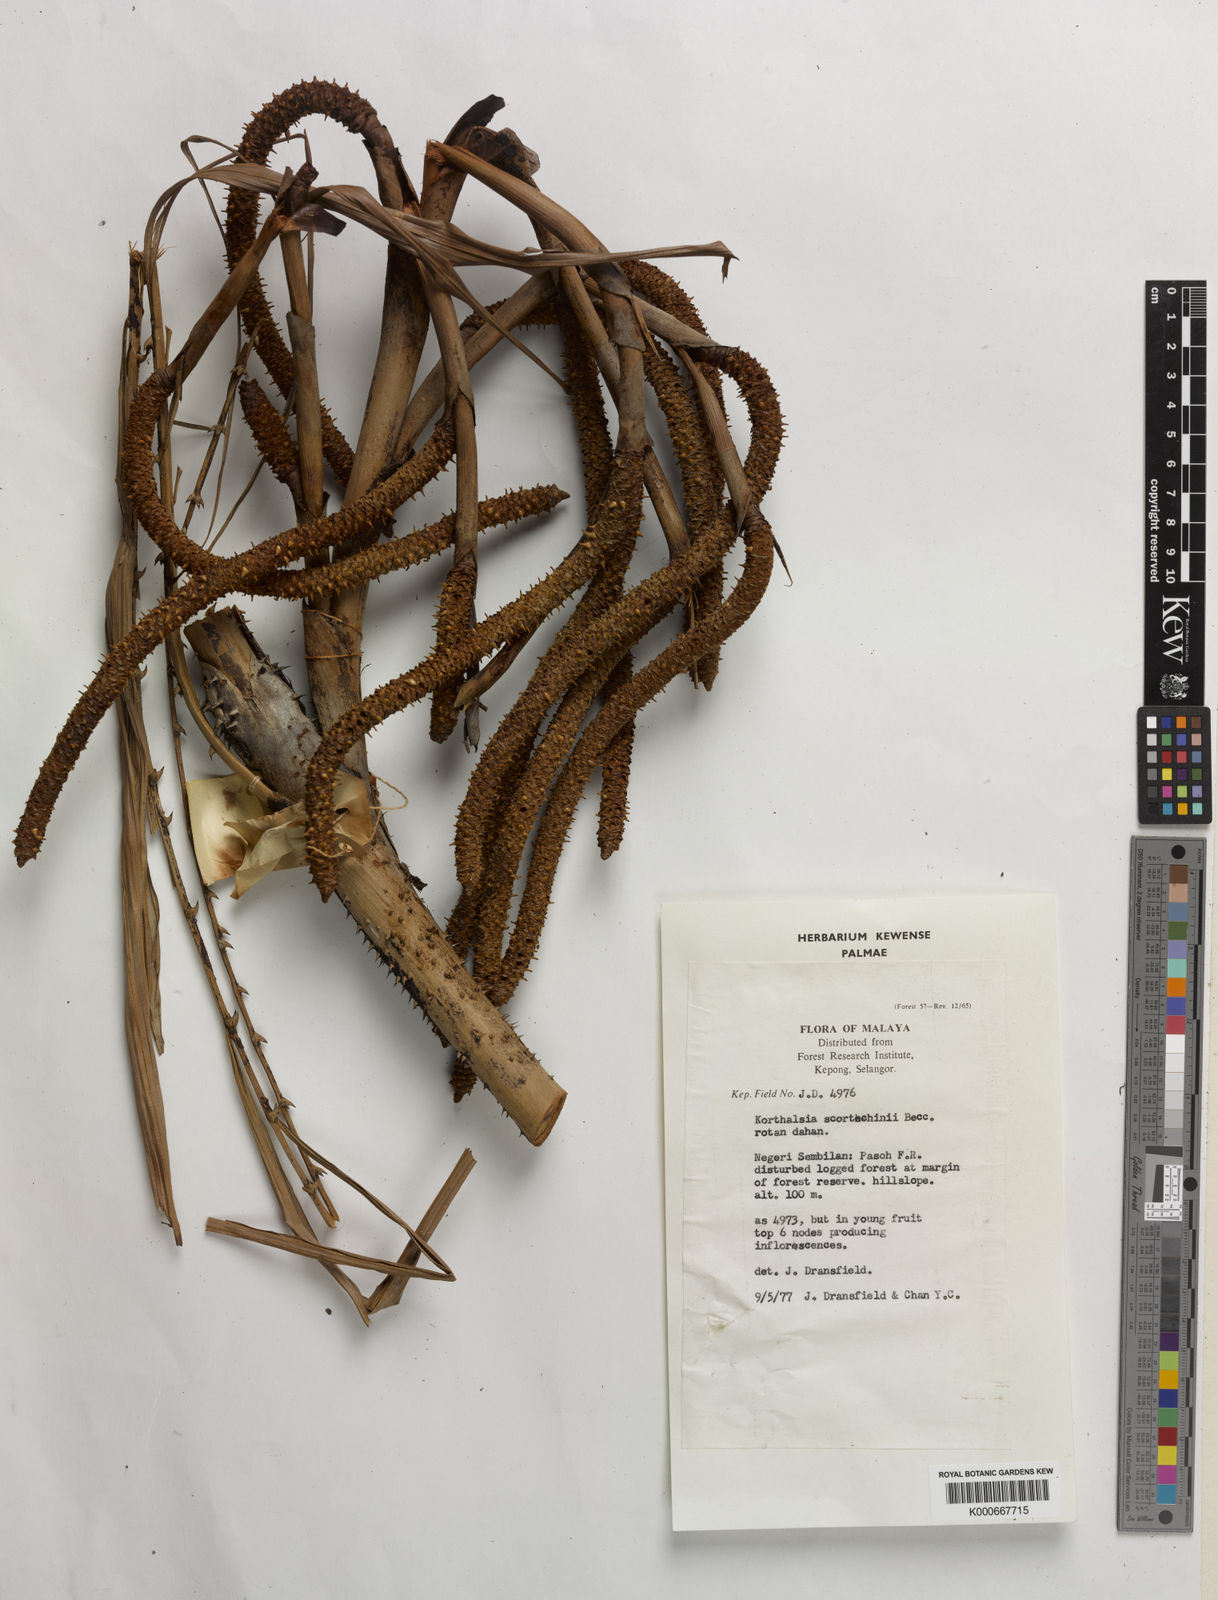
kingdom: Plantae
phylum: Tracheophyta
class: Liliopsida
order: Arecales
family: Arecaceae
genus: Korthalsia
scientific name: Korthalsia scortechinii
